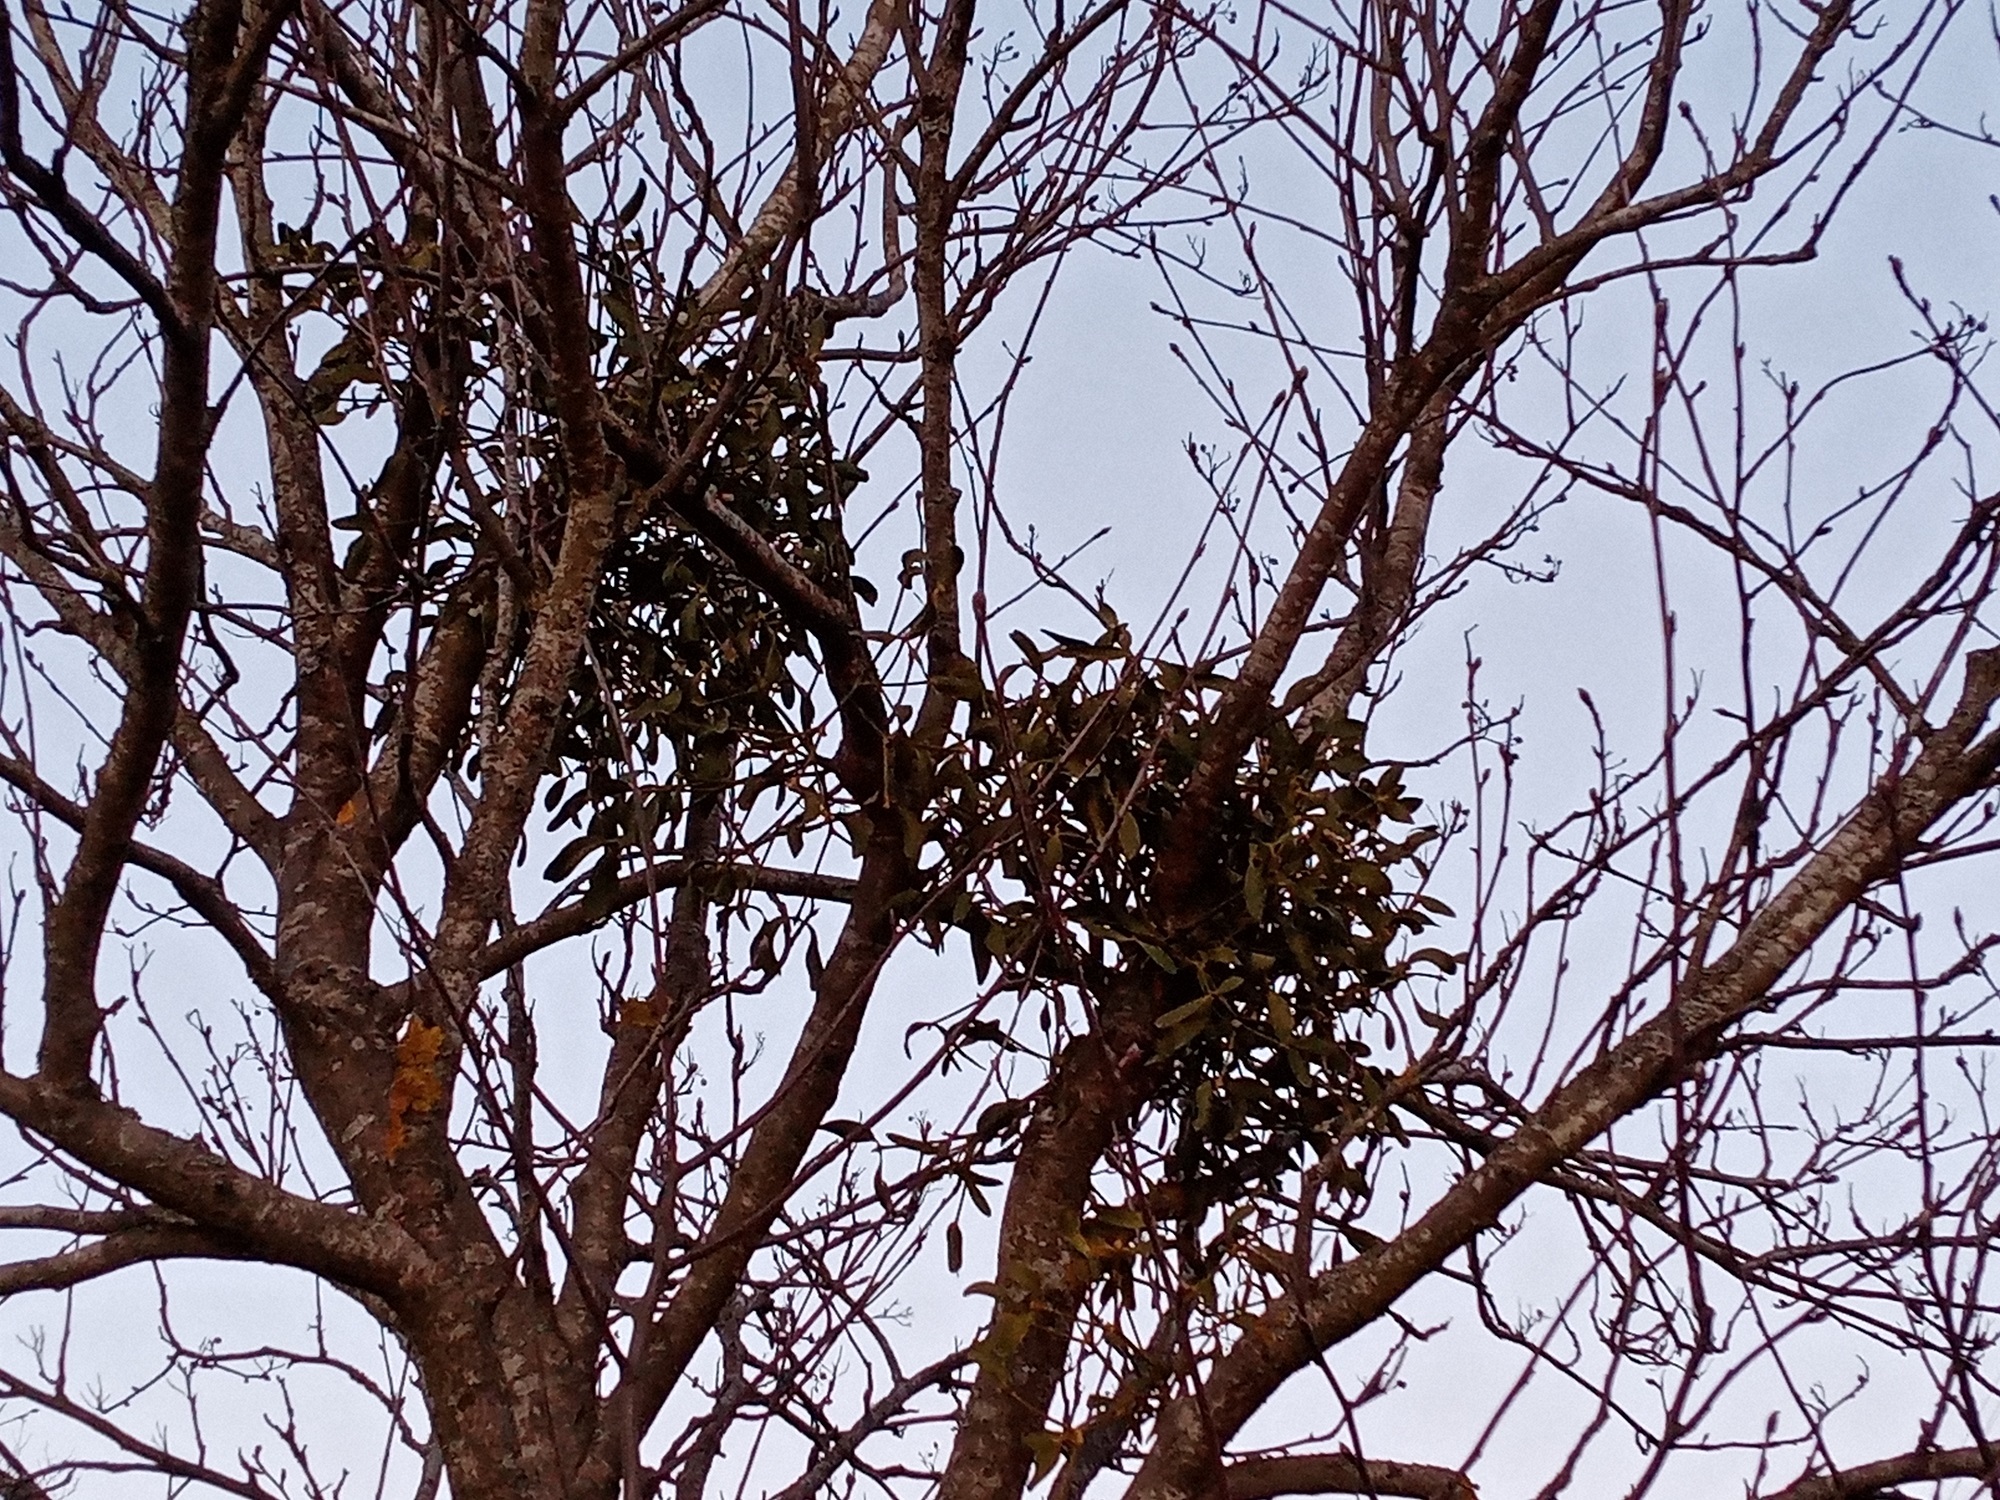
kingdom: Plantae
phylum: Tracheophyta
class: Magnoliopsida
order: Santalales
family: Viscaceae
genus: Viscum
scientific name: Viscum album
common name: Mistletoe
